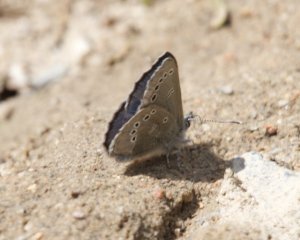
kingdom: Animalia
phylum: Arthropoda
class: Insecta
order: Lepidoptera
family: Lycaenidae
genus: Glaucopsyche
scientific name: Glaucopsyche lygdamus
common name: Silvery Blue
